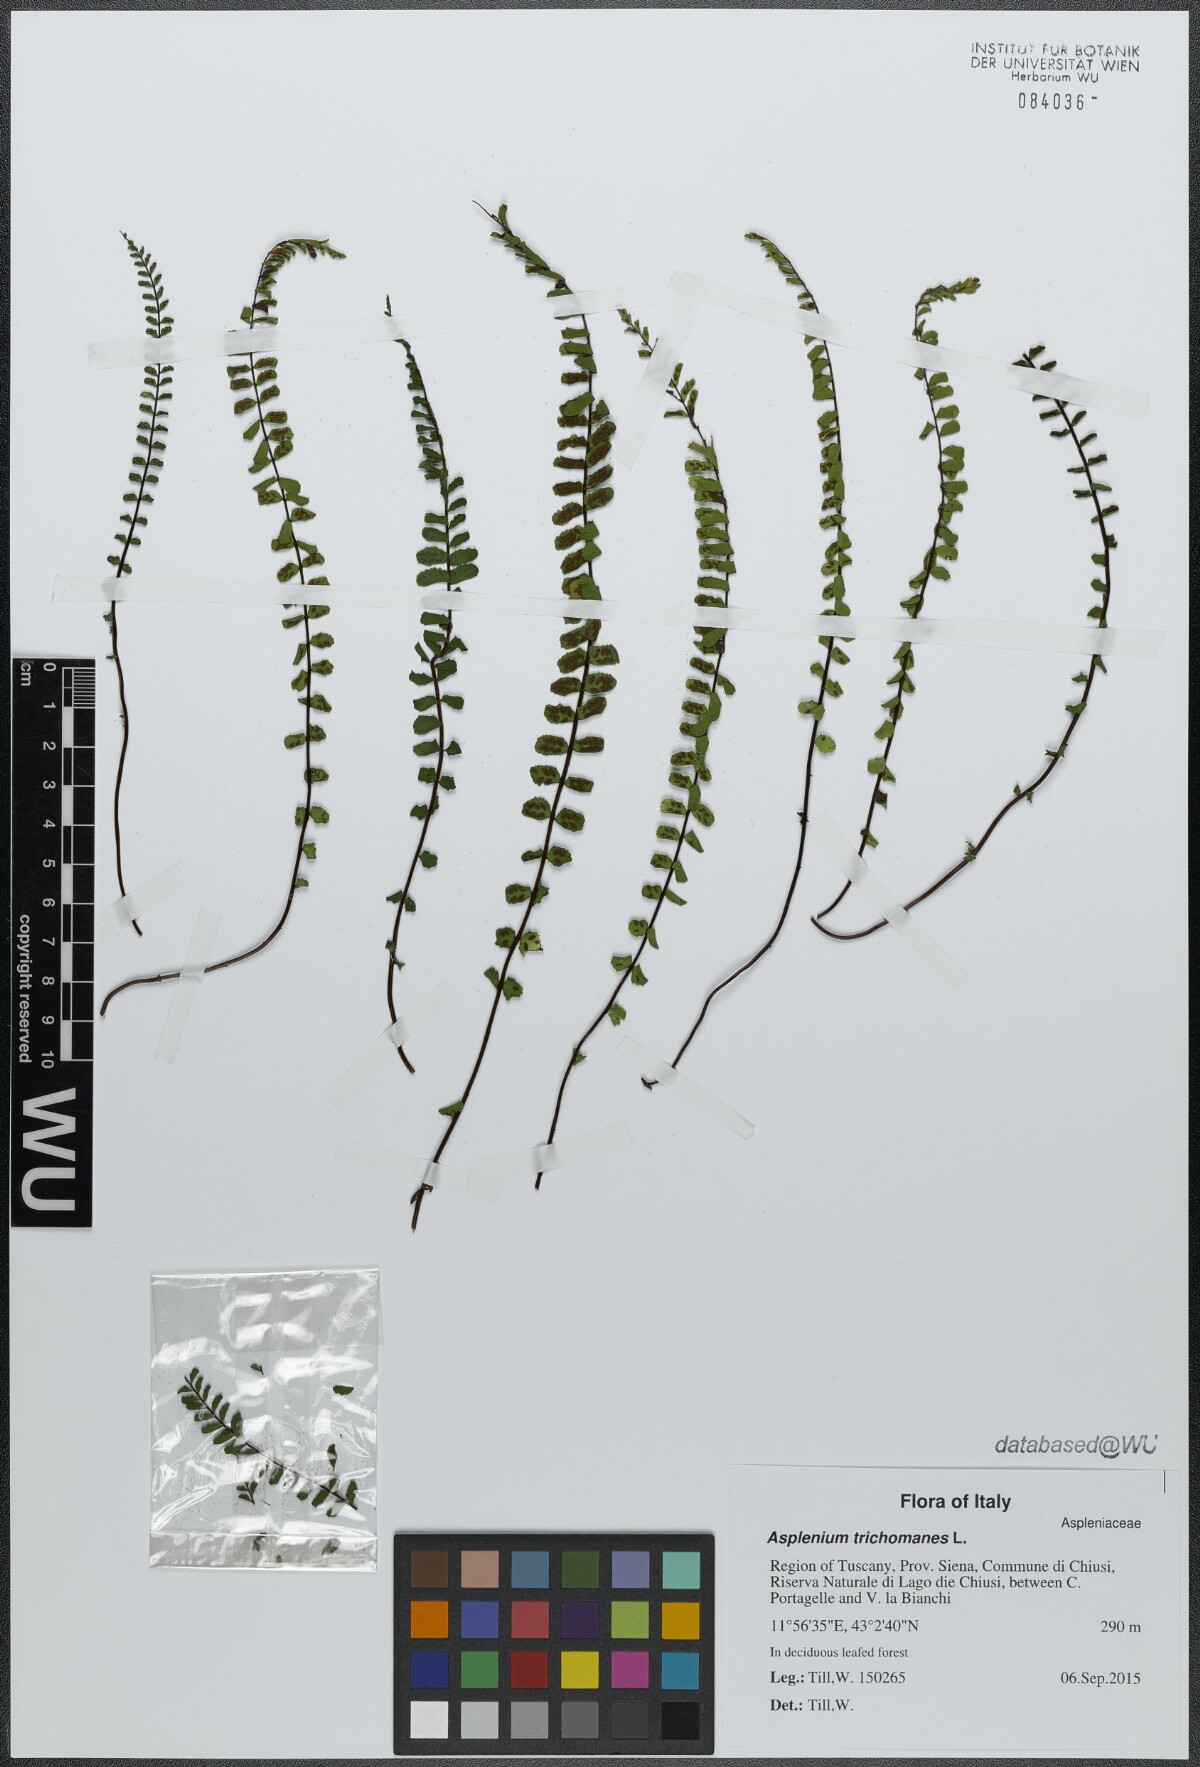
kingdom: Plantae
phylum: Tracheophyta
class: Polypodiopsida
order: Polypodiales
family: Aspleniaceae
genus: Asplenium
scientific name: Asplenium trichomanes
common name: Maidenhair spleenwort
